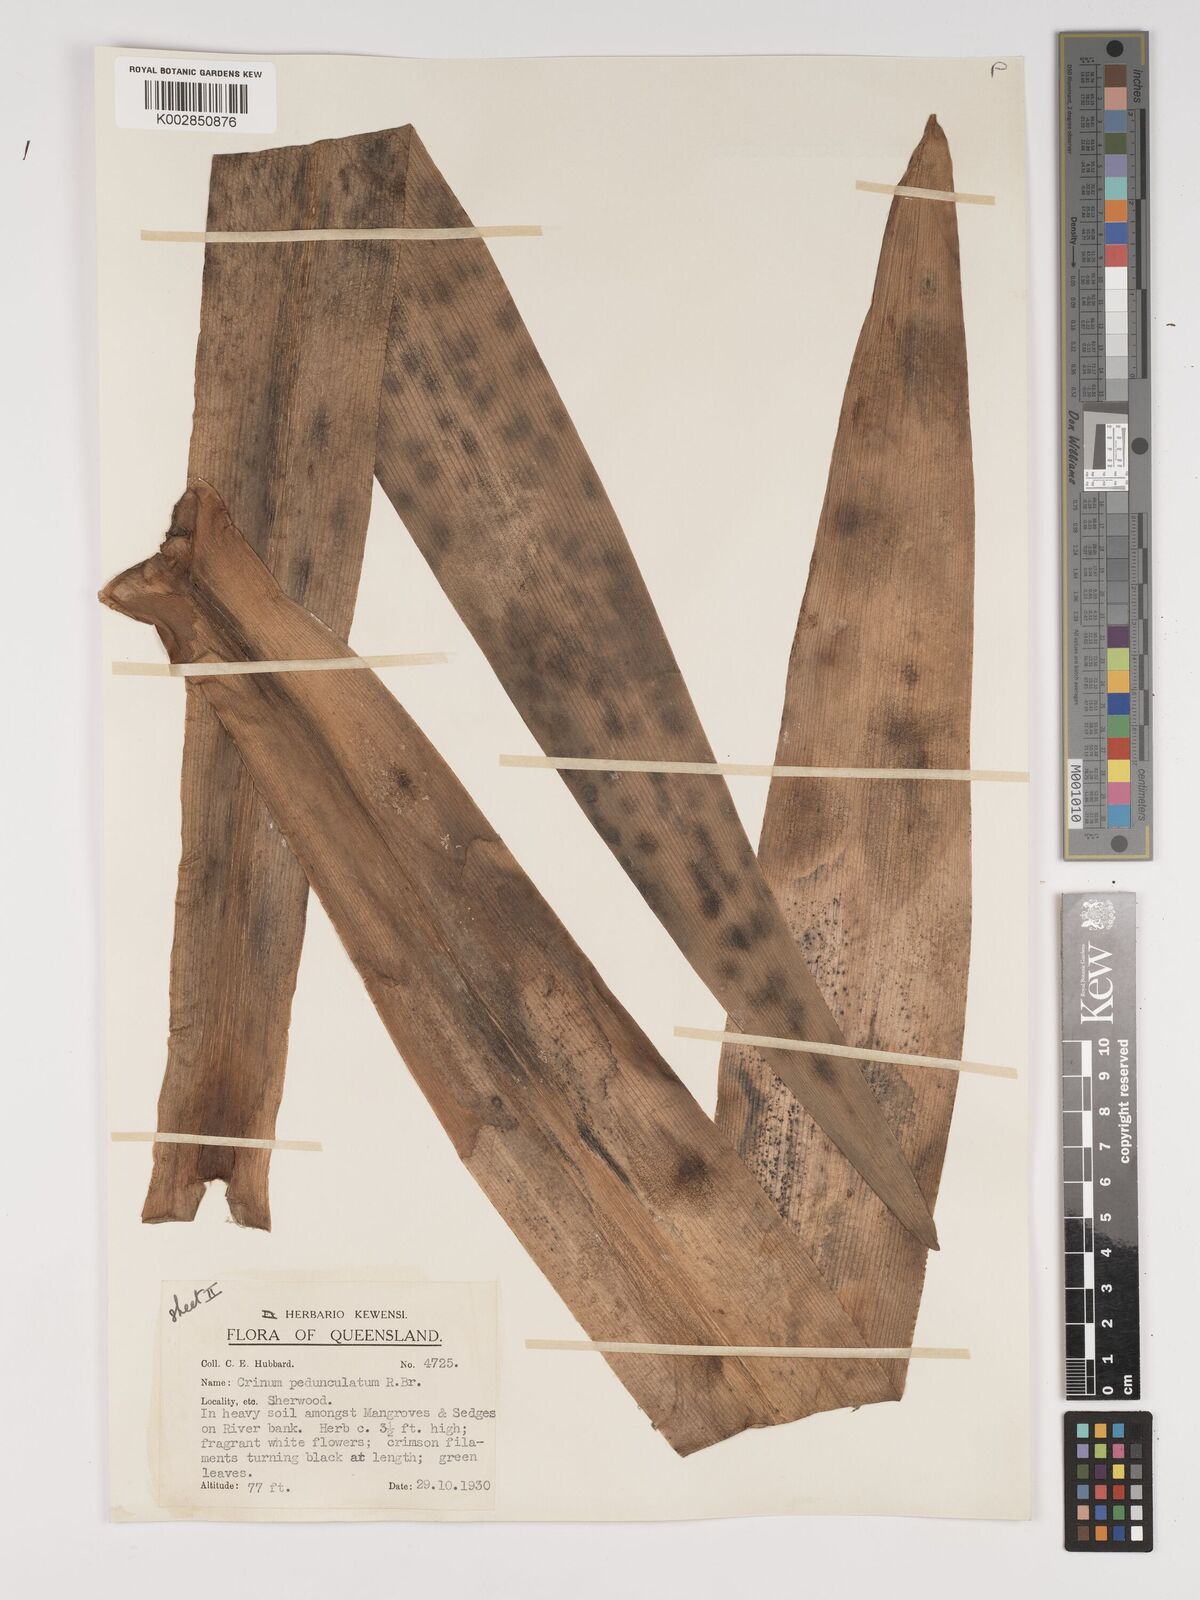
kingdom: Plantae
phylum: Tracheophyta
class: Liliopsida
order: Asparagales
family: Amaryllidaceae
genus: Crinum
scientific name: Crinum asiaticum
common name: Poisonbulb
